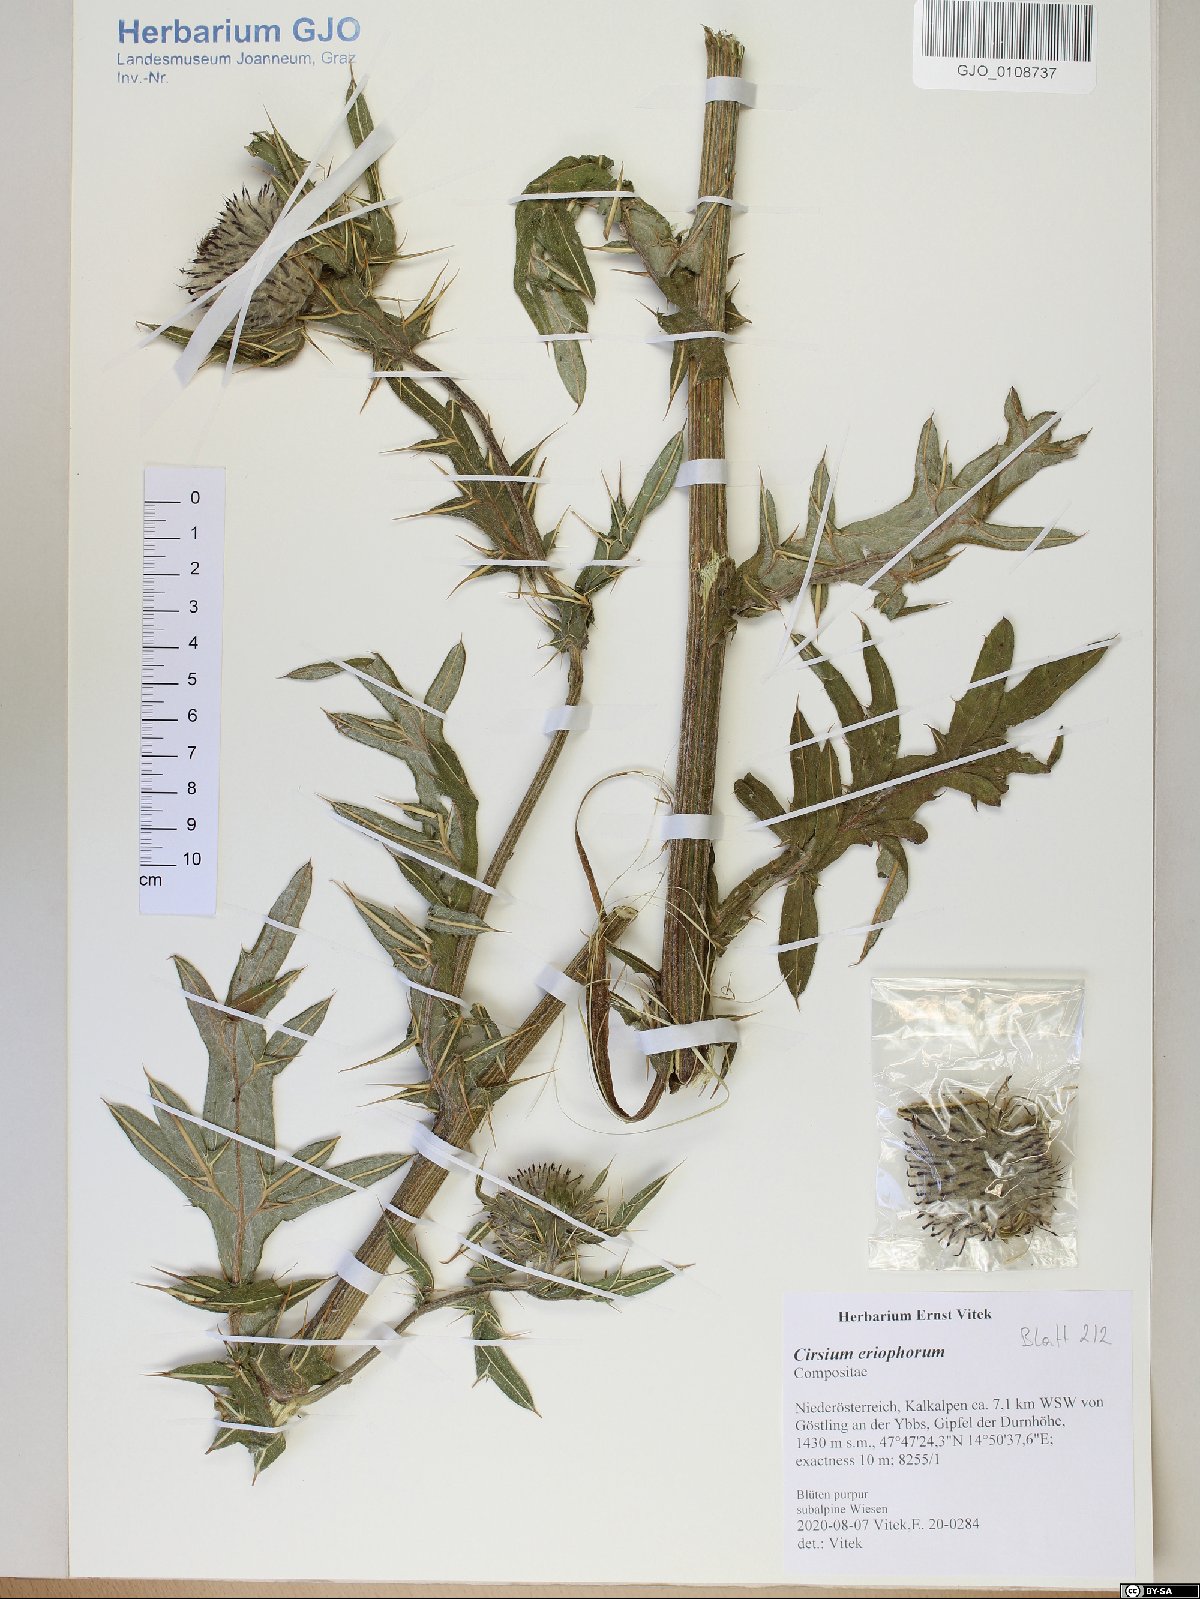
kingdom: Plantae
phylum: Tracheophyta
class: Magnoliopsida
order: Asterales
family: Asteraceae
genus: Lophiolepis
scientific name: Lophiolepis eriophora
